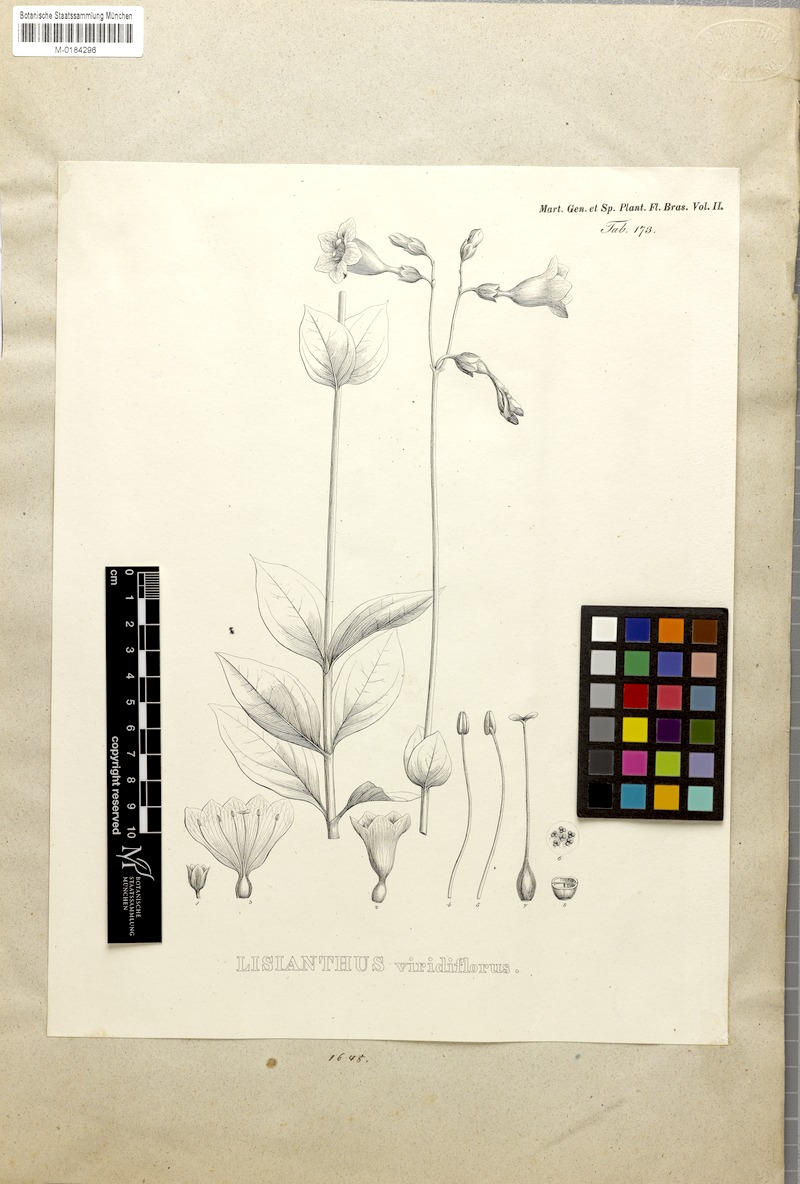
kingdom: Plantae
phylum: Tracheophyta
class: Magnoliopsida
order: Gentianales
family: Gentianaceae
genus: Adenolisianthus
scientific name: Adenolisianthus arboreus
